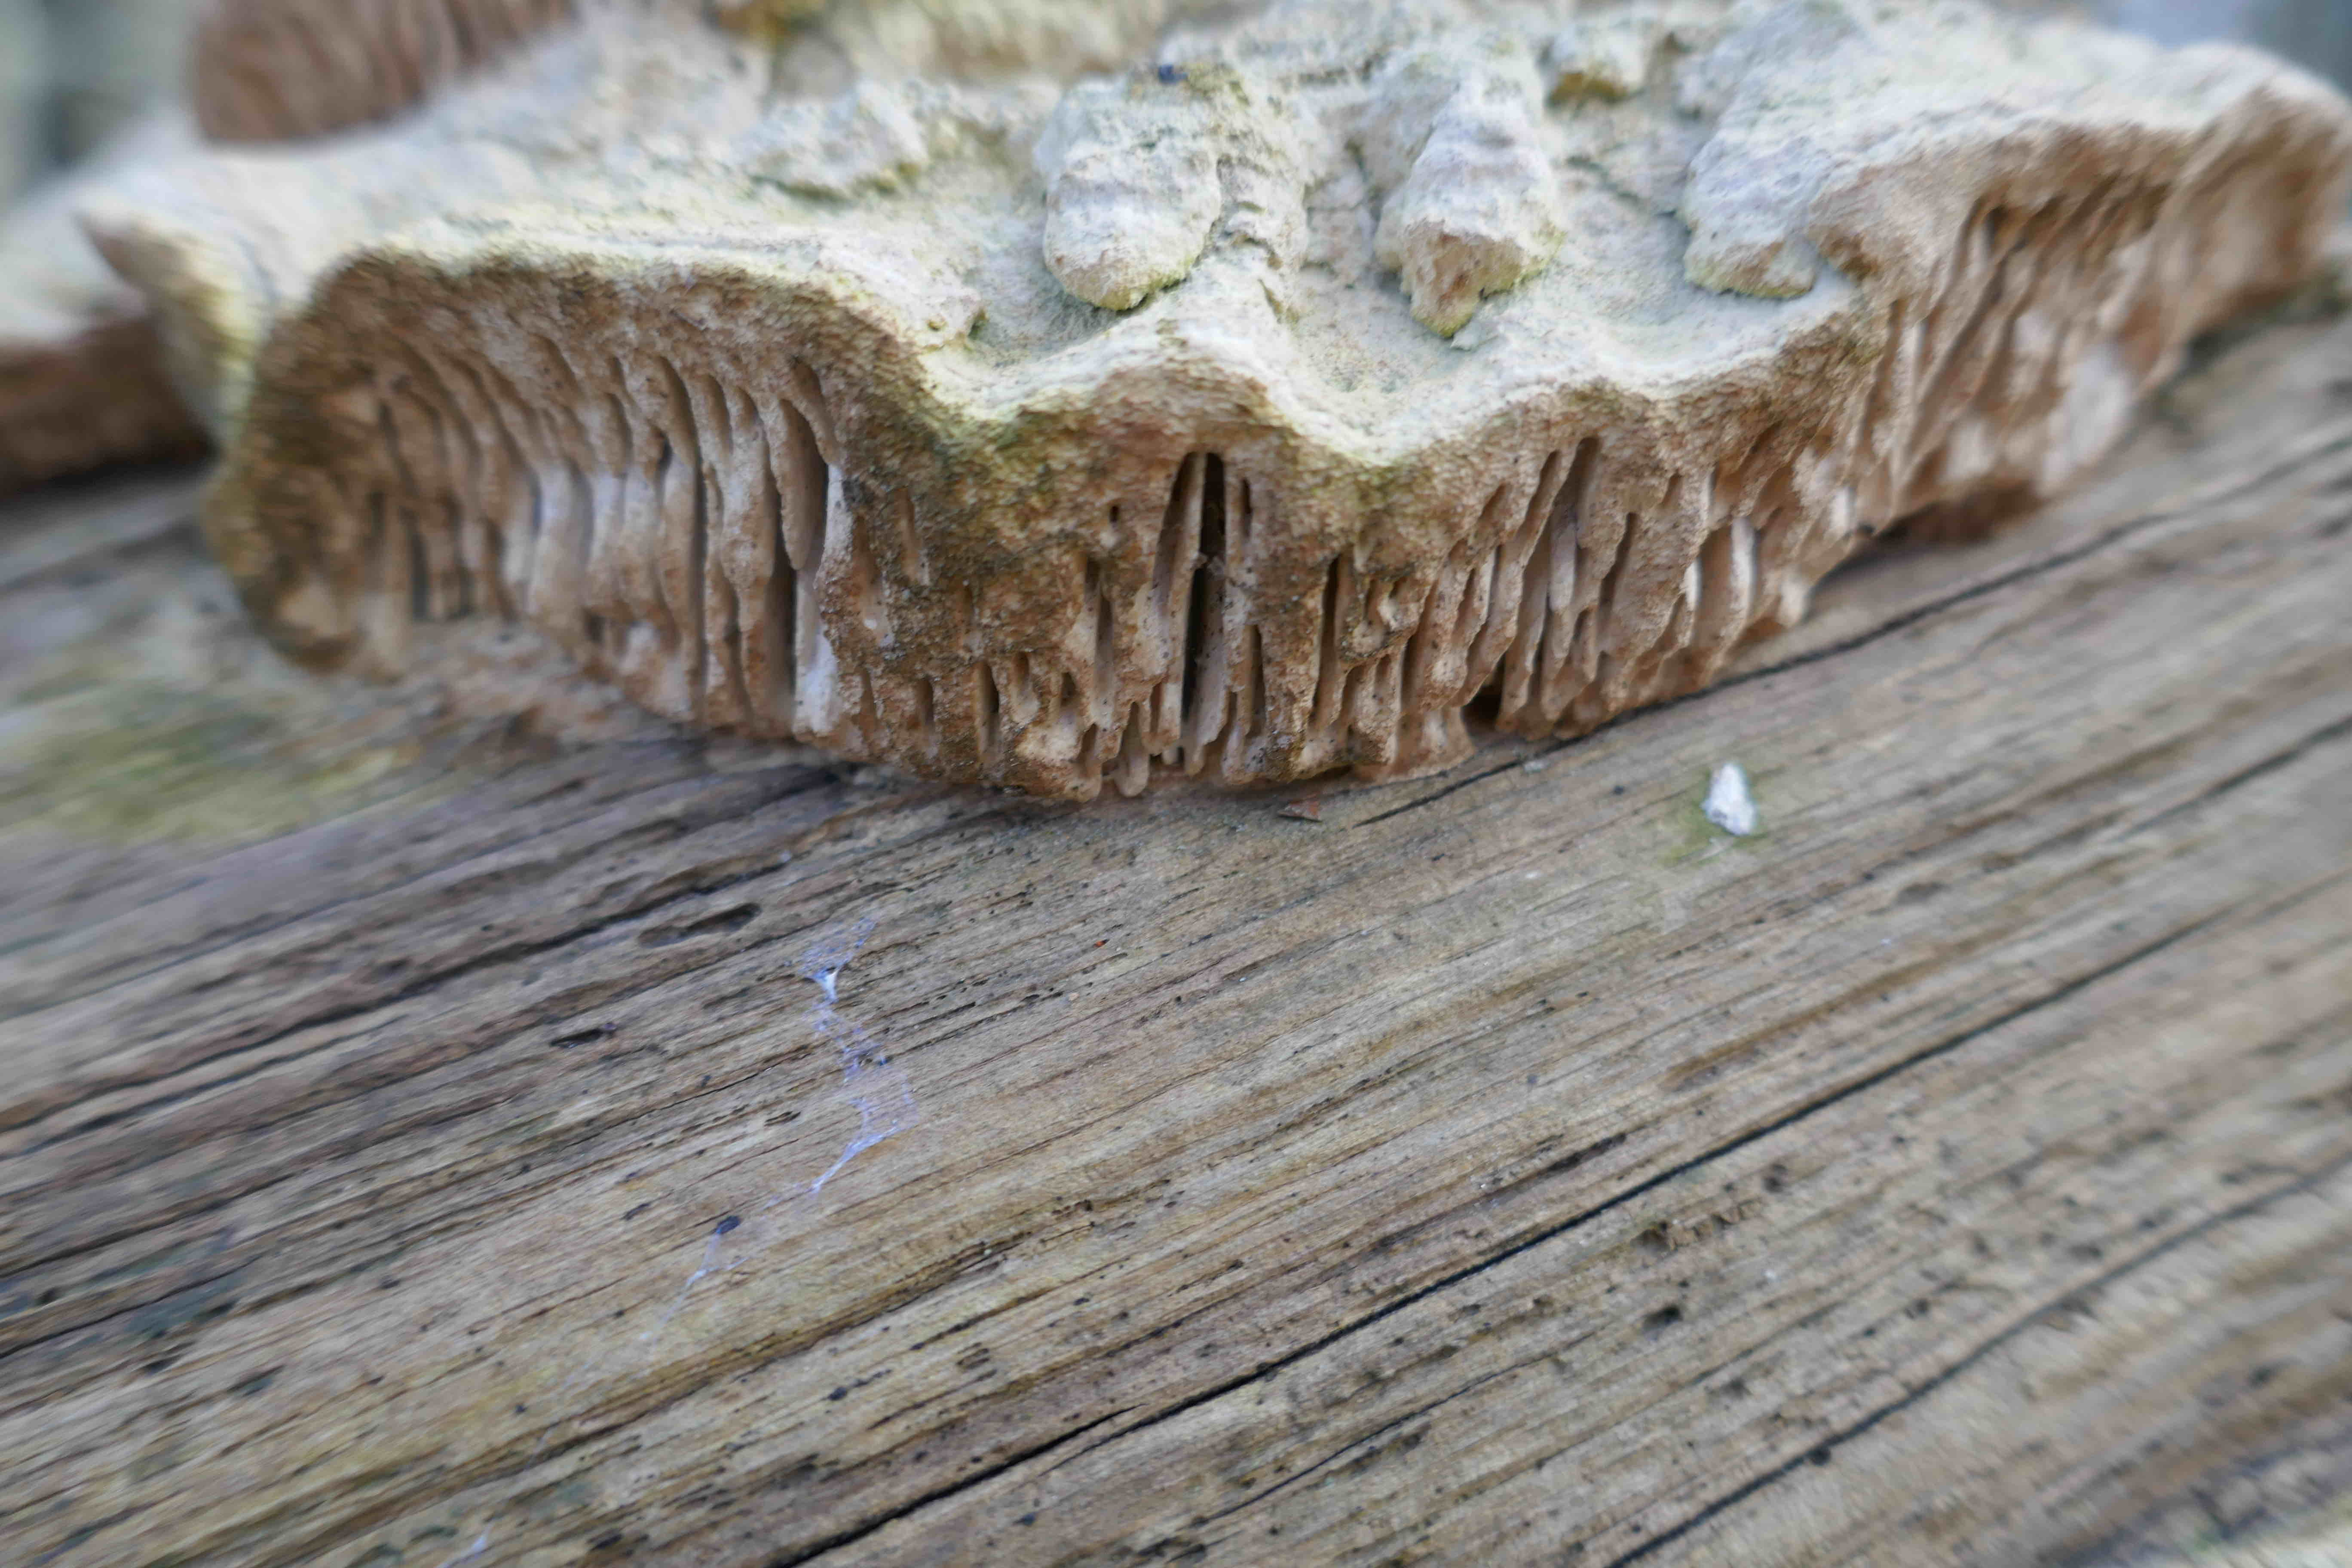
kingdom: Fungi
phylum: Basidiomycota
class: Agaricomycetes
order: Polyporales
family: Fomitopsidaceae
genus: Daedalea
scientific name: Daedalea quercina
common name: ege-labyrintsvamp
